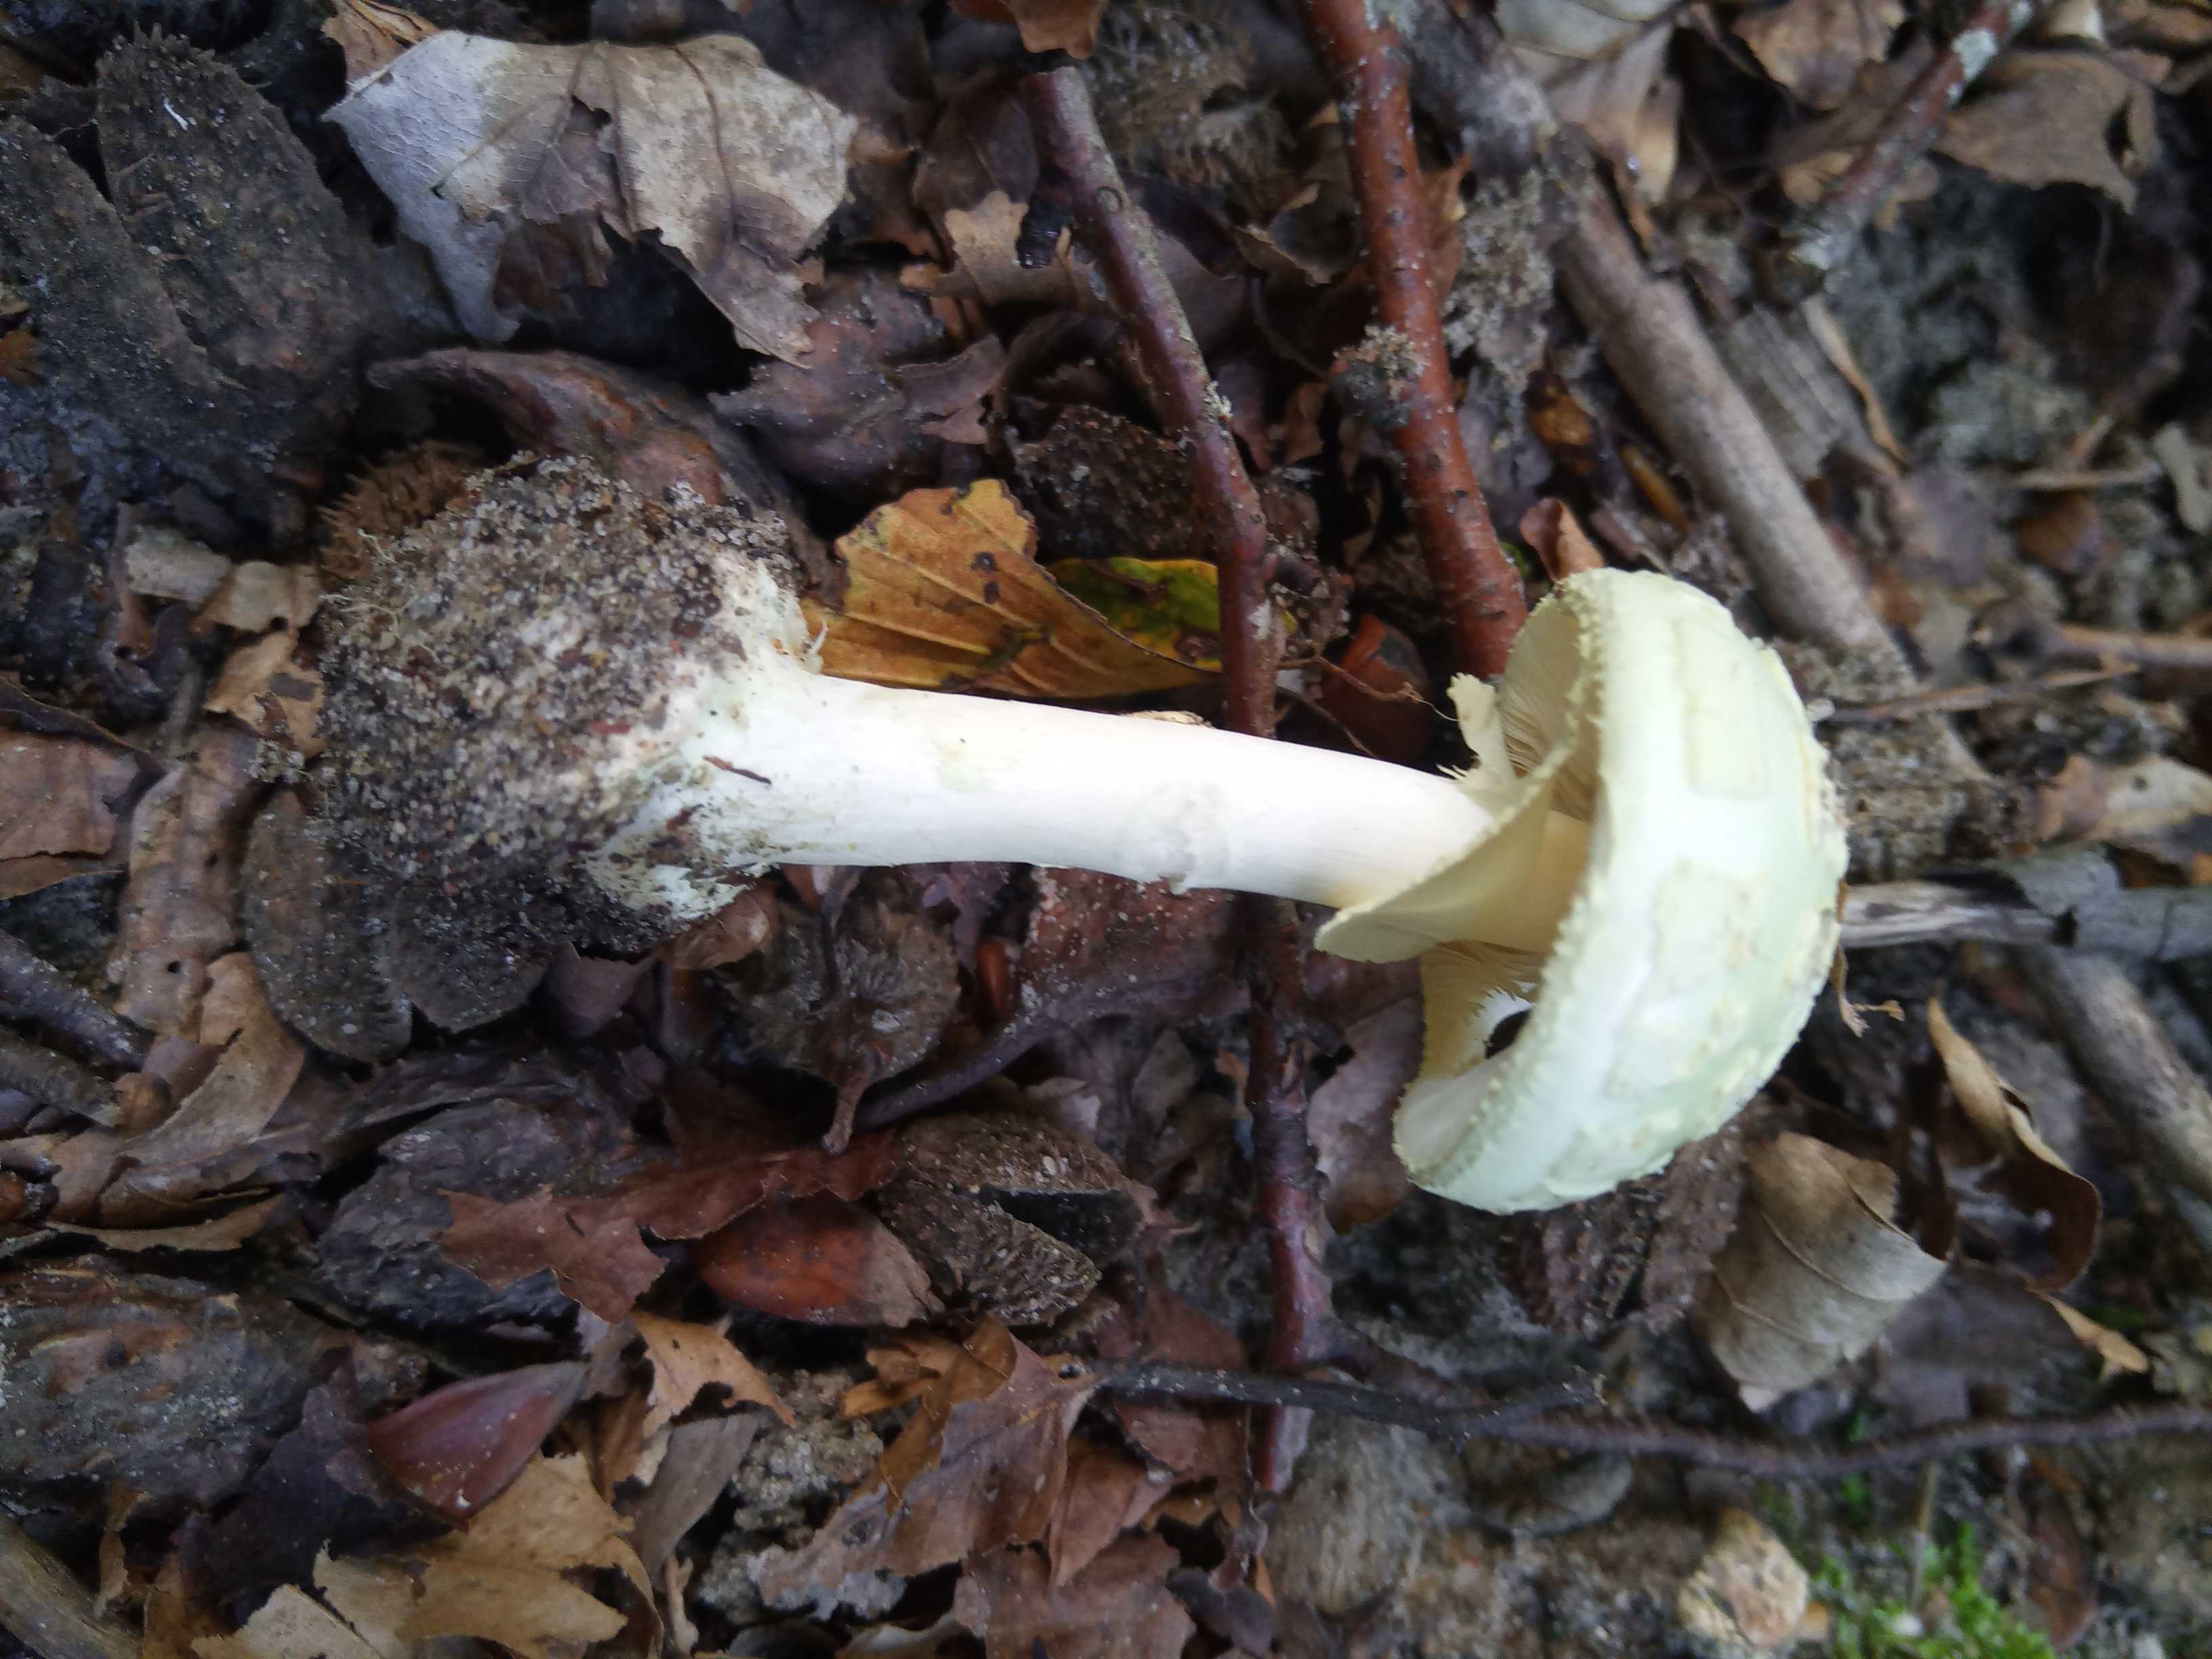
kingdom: Fungi
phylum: Basidiomycota
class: Agaricomycetes
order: Agaricales
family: Amanitaceae
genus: Amanita
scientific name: Amanita citrina
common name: kugleknoldet fluesvamp
